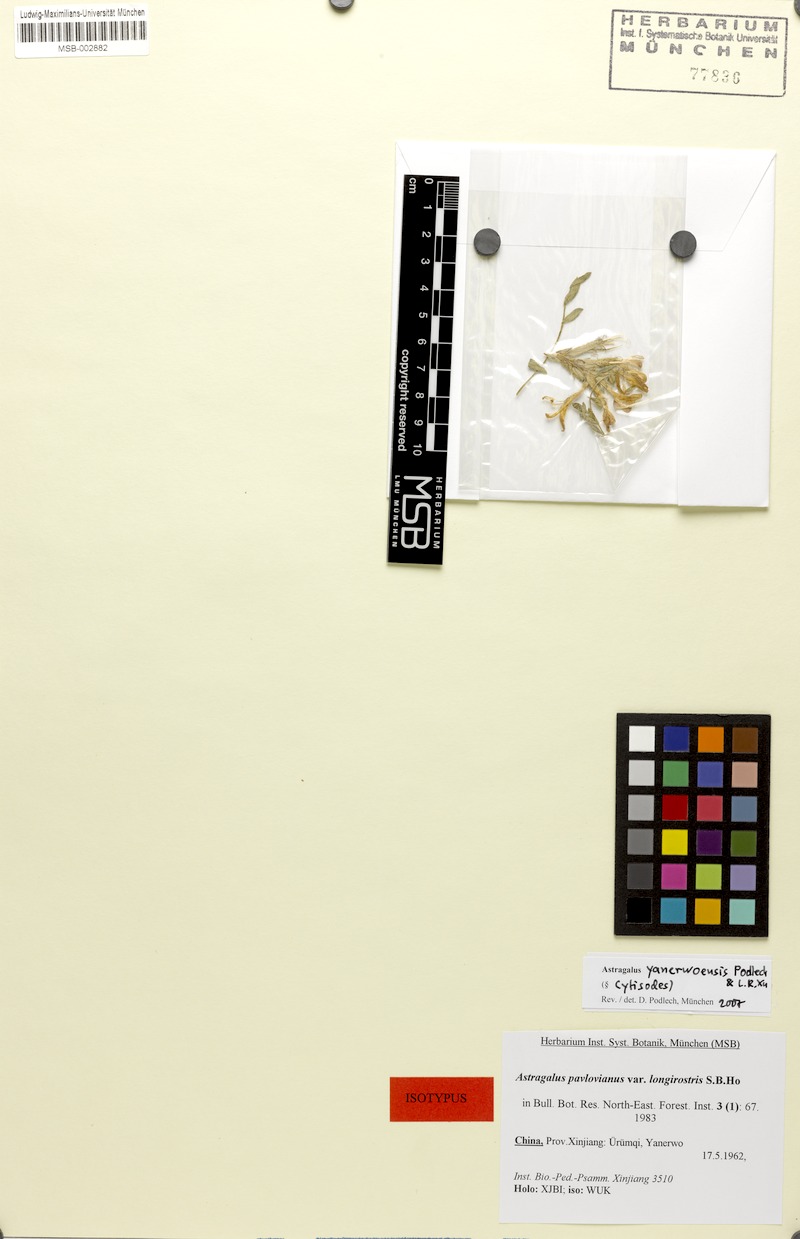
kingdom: Plantae
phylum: Tracheophyta
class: Magnoliopsida
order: Fabales
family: Fabaceae
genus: Astragalus
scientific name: Astragalus yanerwoensis
